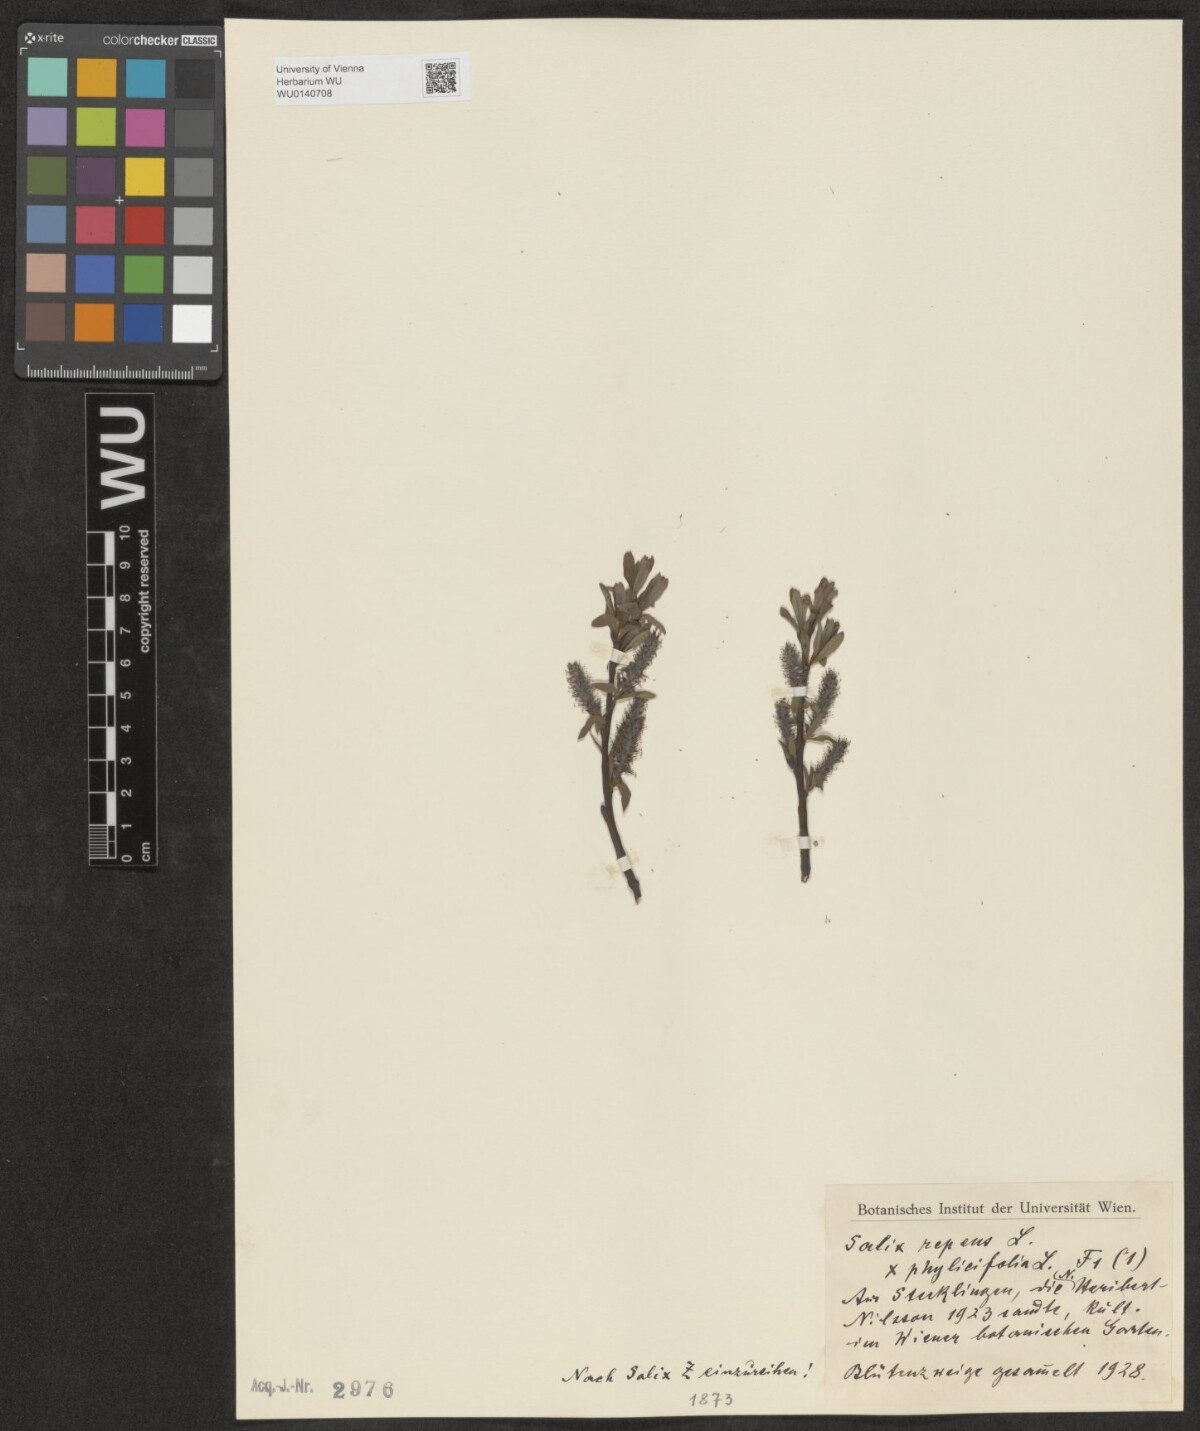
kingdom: Plantae
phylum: Tracheophyta
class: Magnoliopsida
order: Malpighiales
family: Salicaceae
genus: Salix
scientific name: Salix
